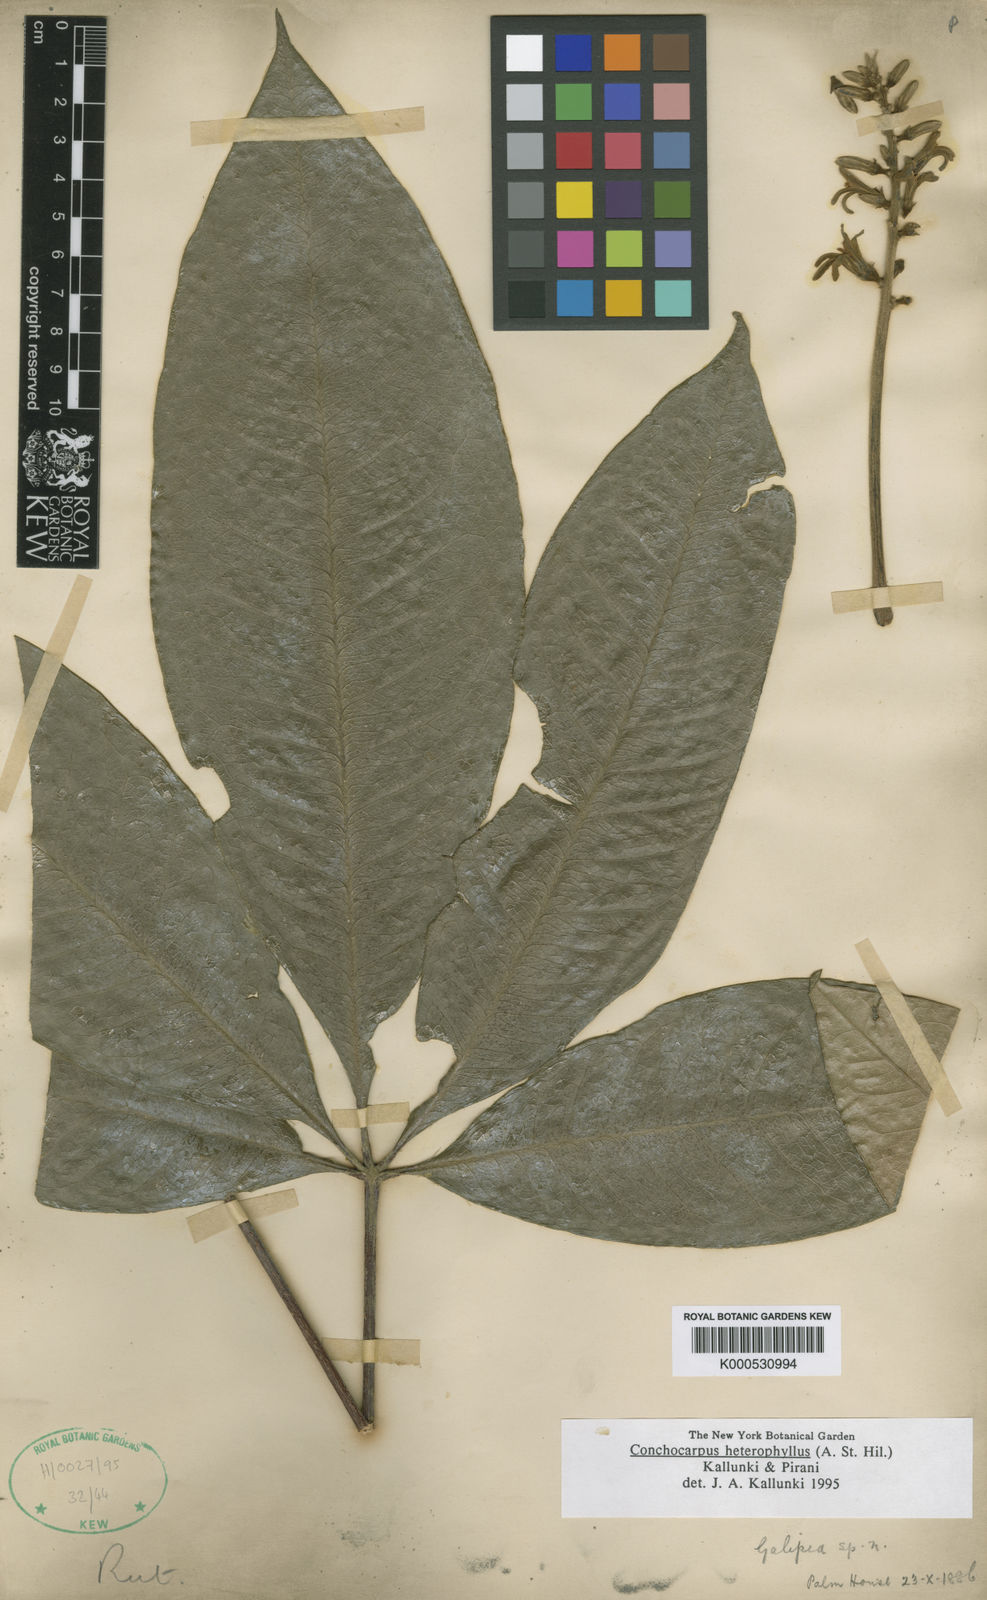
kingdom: Plantae
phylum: Tracheophyta
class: Magnoliopsida
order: Sapindales
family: Rutaceae
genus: Conchocarpus
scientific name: Conchocarpus heterophyllus
